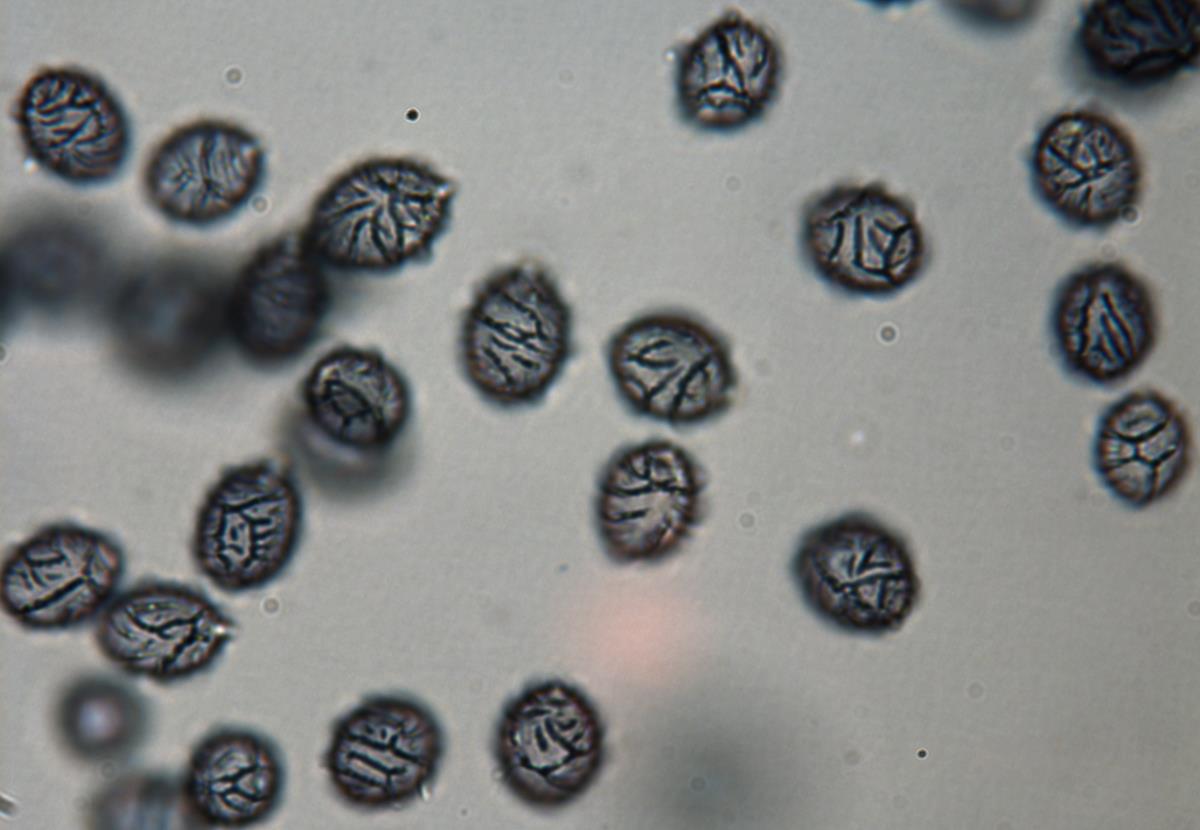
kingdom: Fungi
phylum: Basidiomycota
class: Agaricomycetes
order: Russulales
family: Russulaceae
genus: Zelleromyces
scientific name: Zelleromyces
